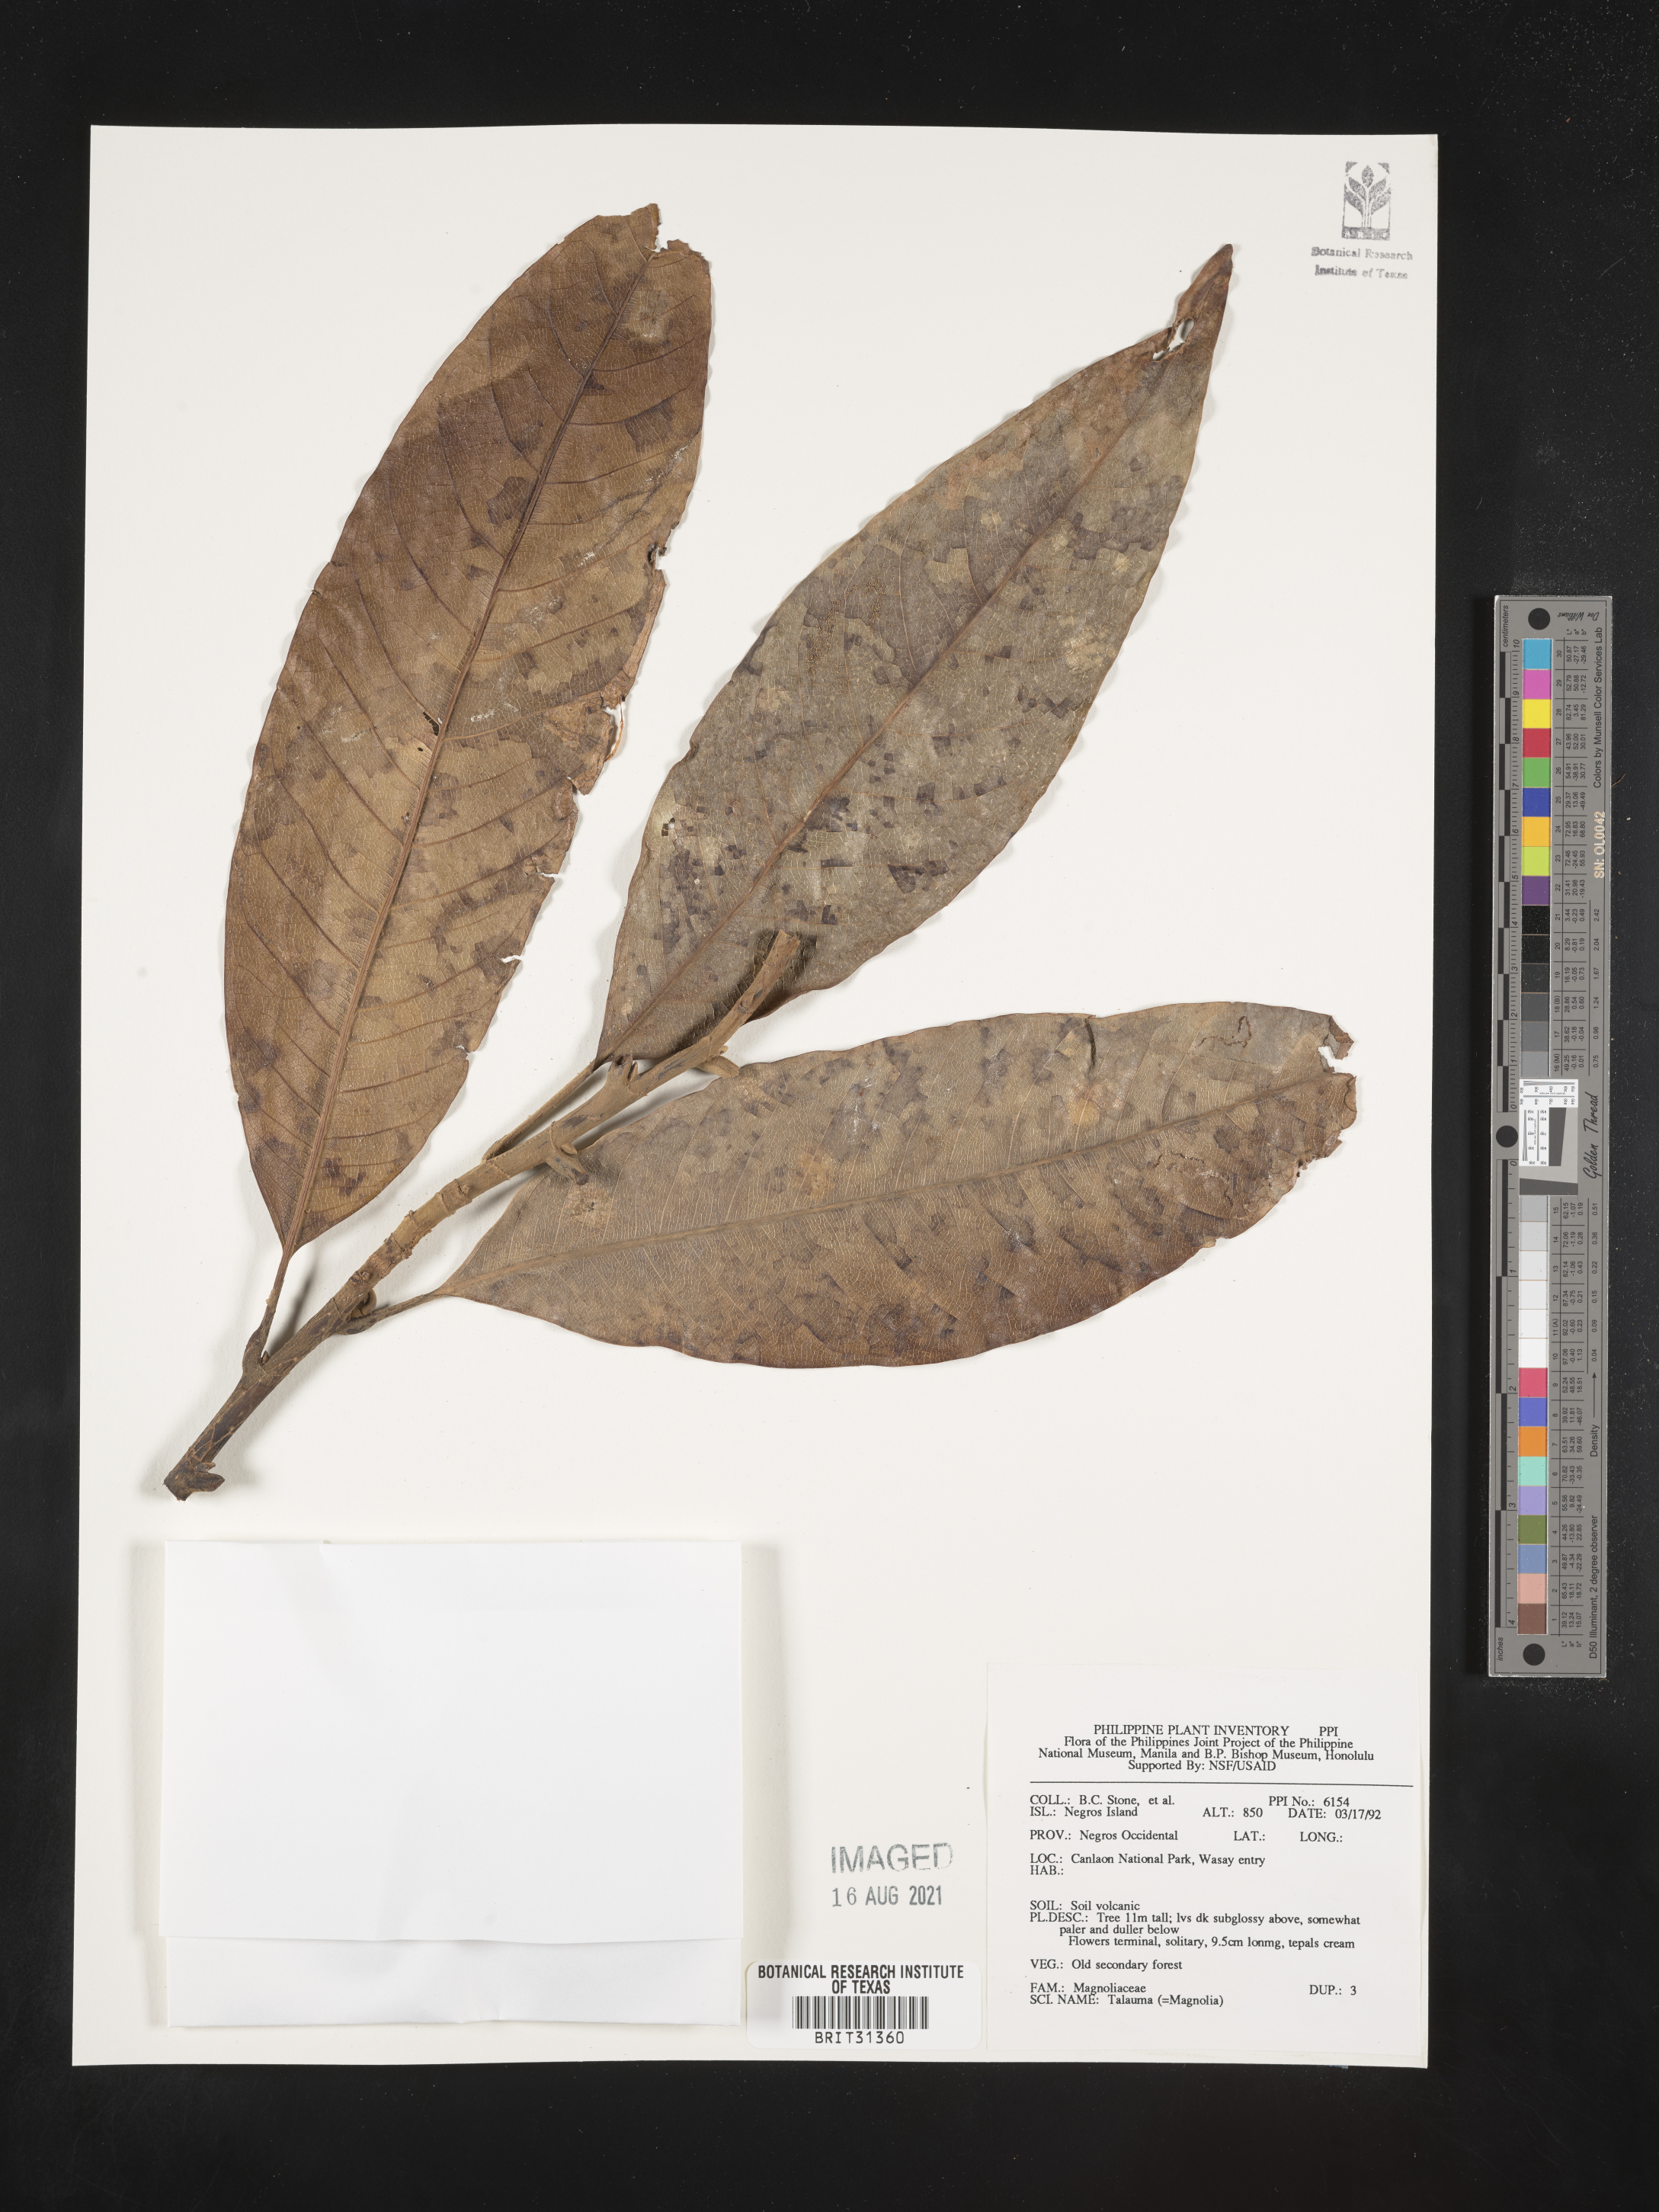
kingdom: Plantae
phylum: Tracheophyta
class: Magnoliopsida
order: Magnoliales
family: Magnoliaceae
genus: Magnolia
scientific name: Magnolia Talauma spec
